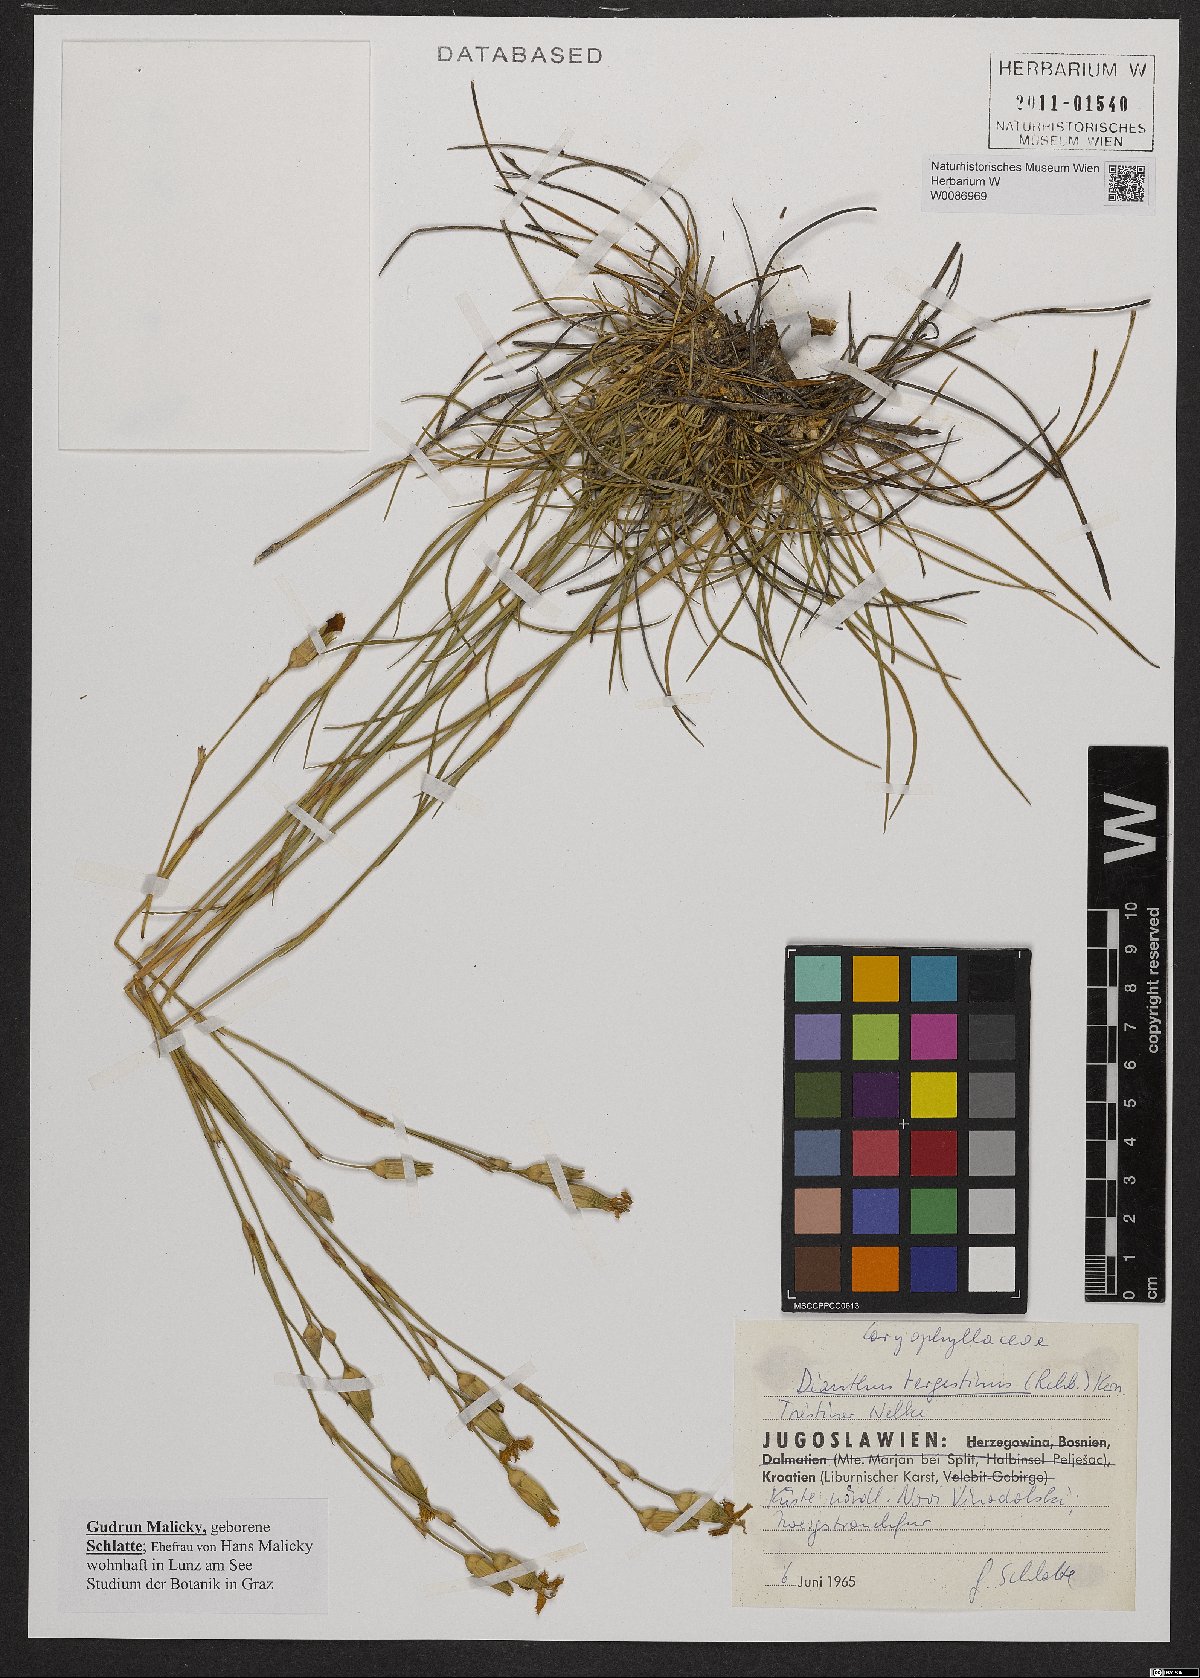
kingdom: Plantae
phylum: Tracheophyta
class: Magnoliopsida
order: Caryophyllales
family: Caryophyllaceae
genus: Dianthus
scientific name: Dianthus sylvestris
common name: Wood pink
